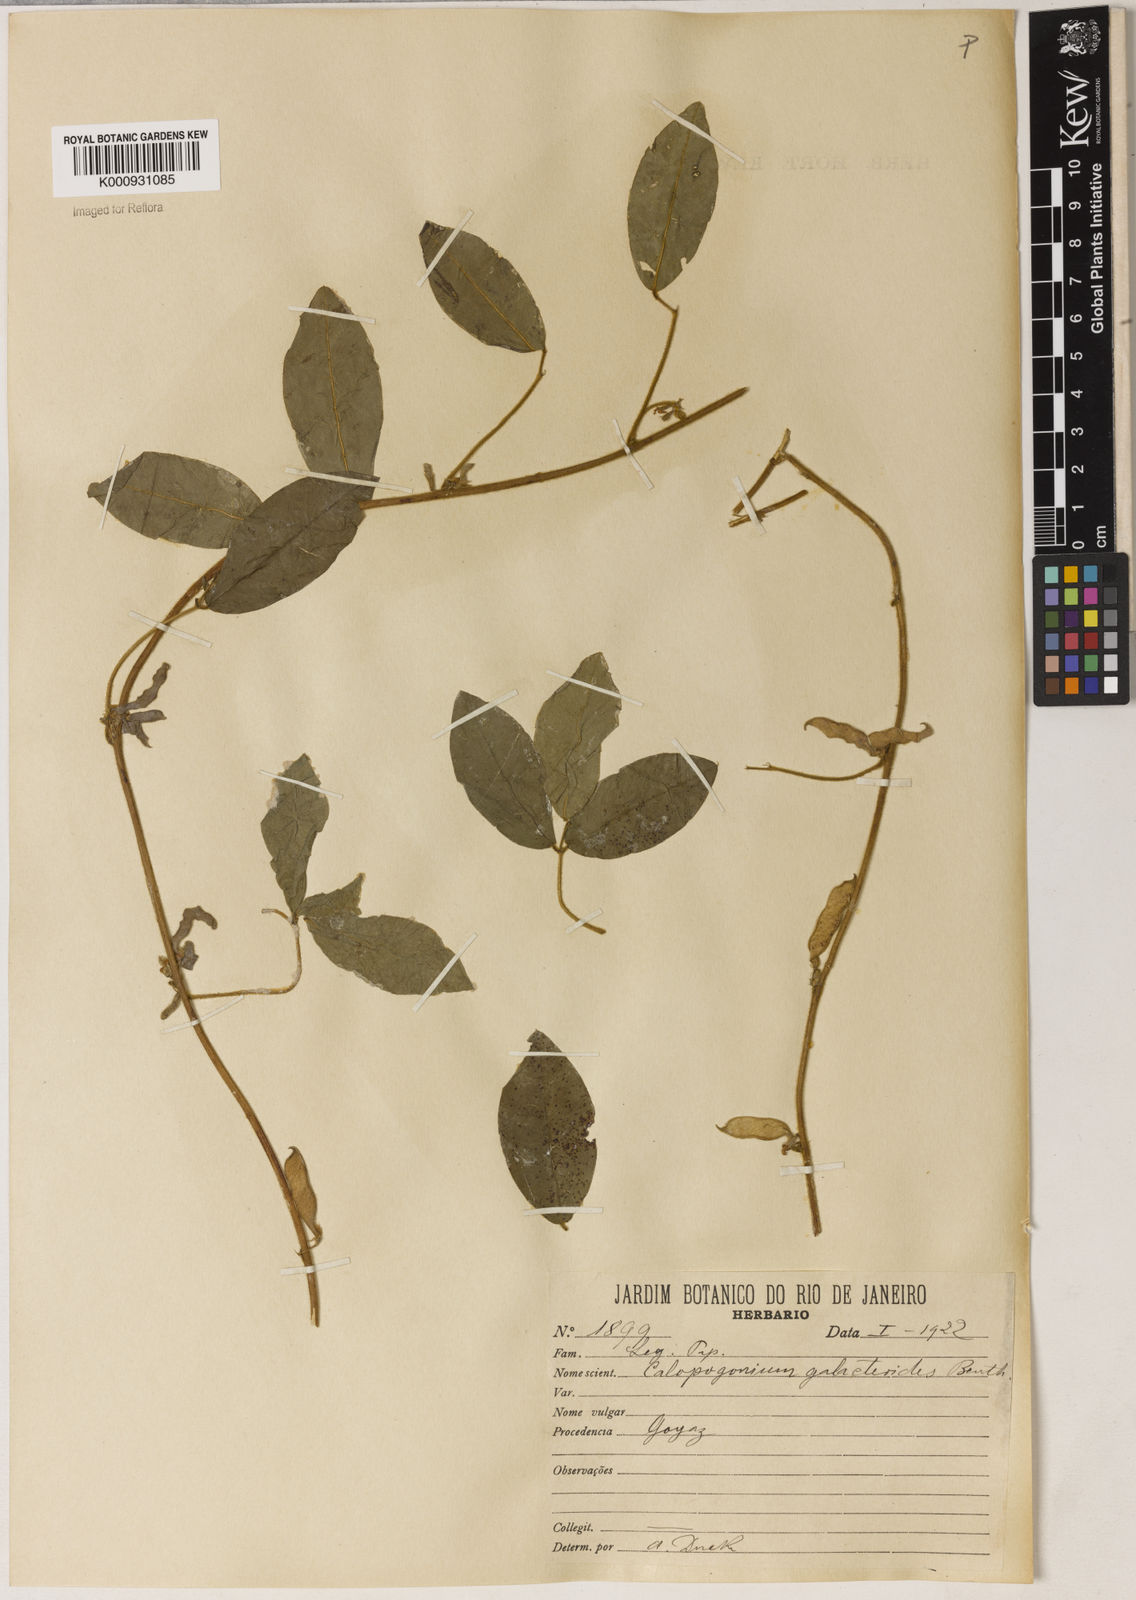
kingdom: Plantae
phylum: Tracheophyta
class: Magnoliopsida
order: Fabales
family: Fabaceae
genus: Calopogonium
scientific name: Calopogonium galactioides
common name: Legume
